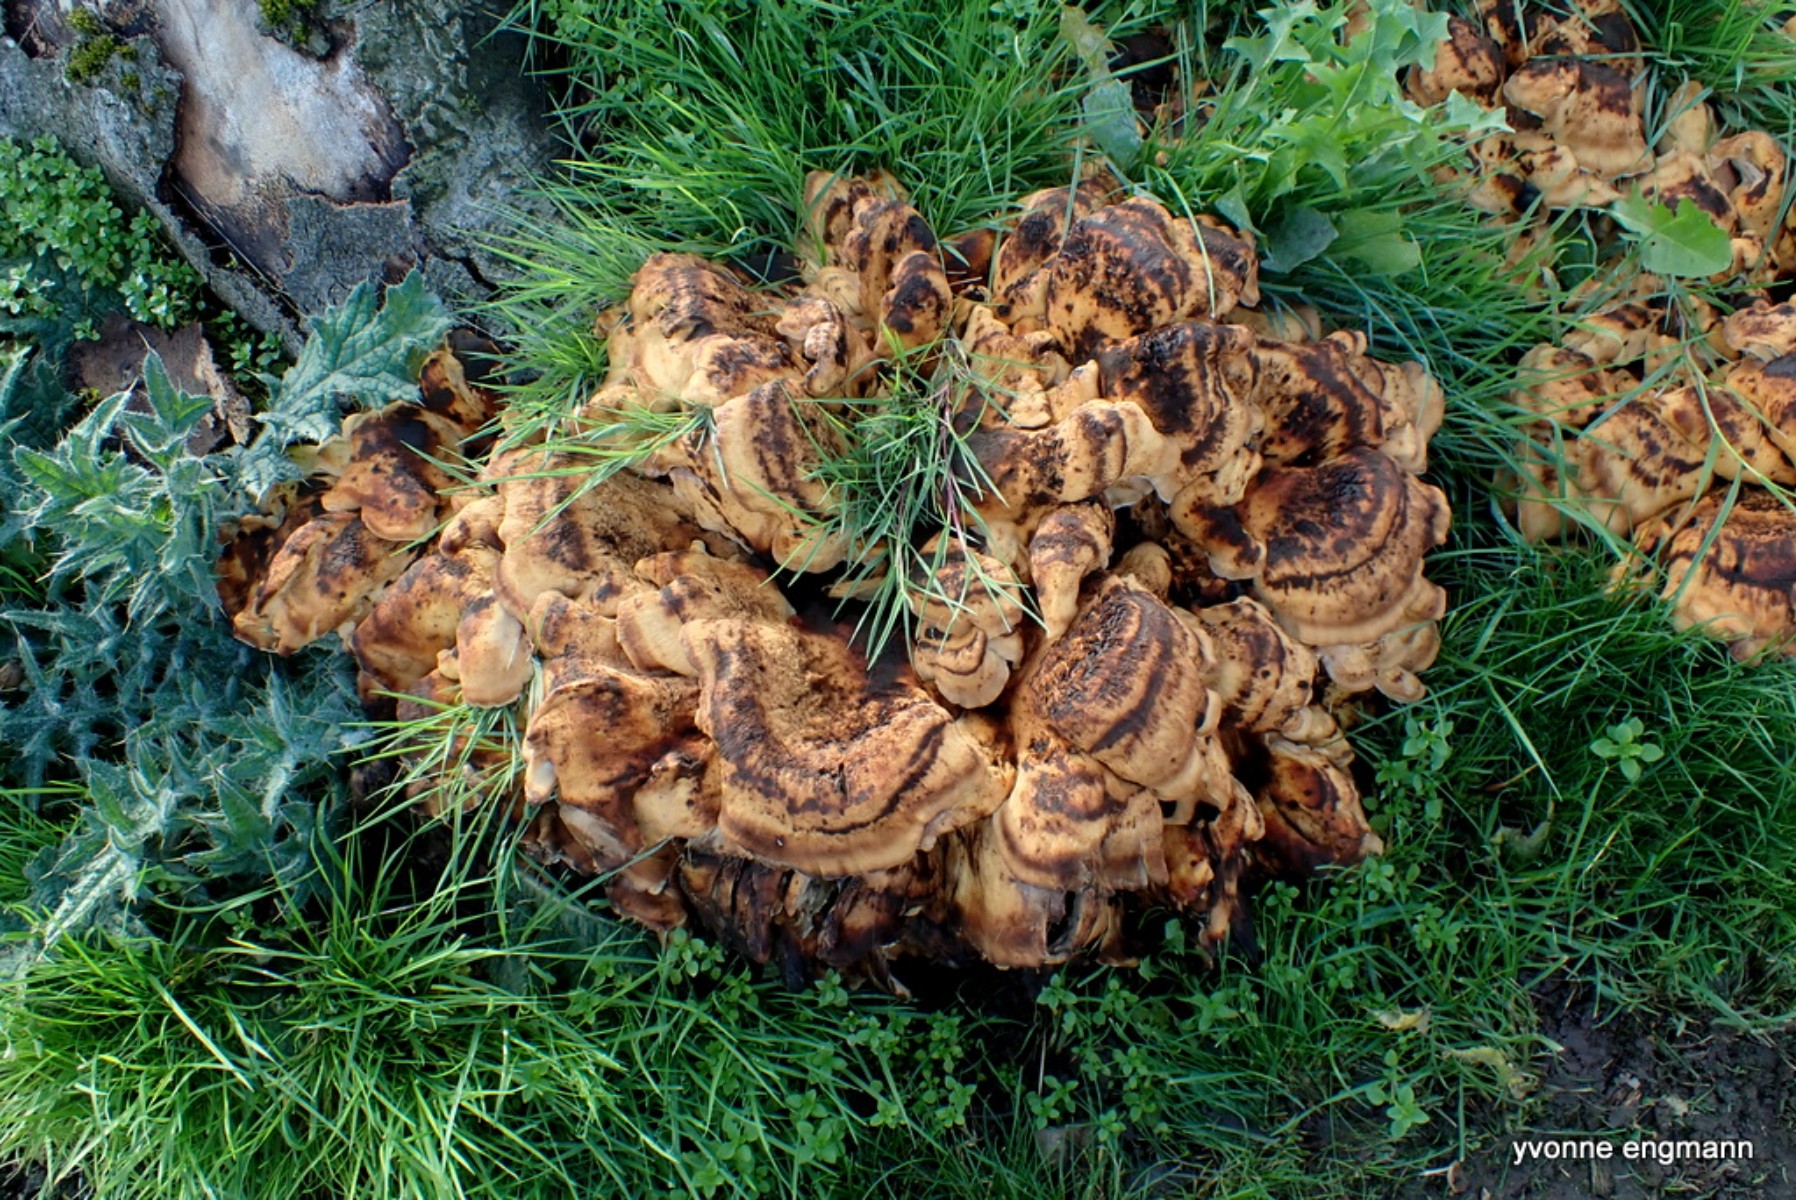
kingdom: Fungi
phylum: Basidiomycota
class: Agaricomycetes
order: Polyporales
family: Meripilaceae
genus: Meripilus
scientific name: Meripilus giganteus
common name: kæmpeporesvamp
